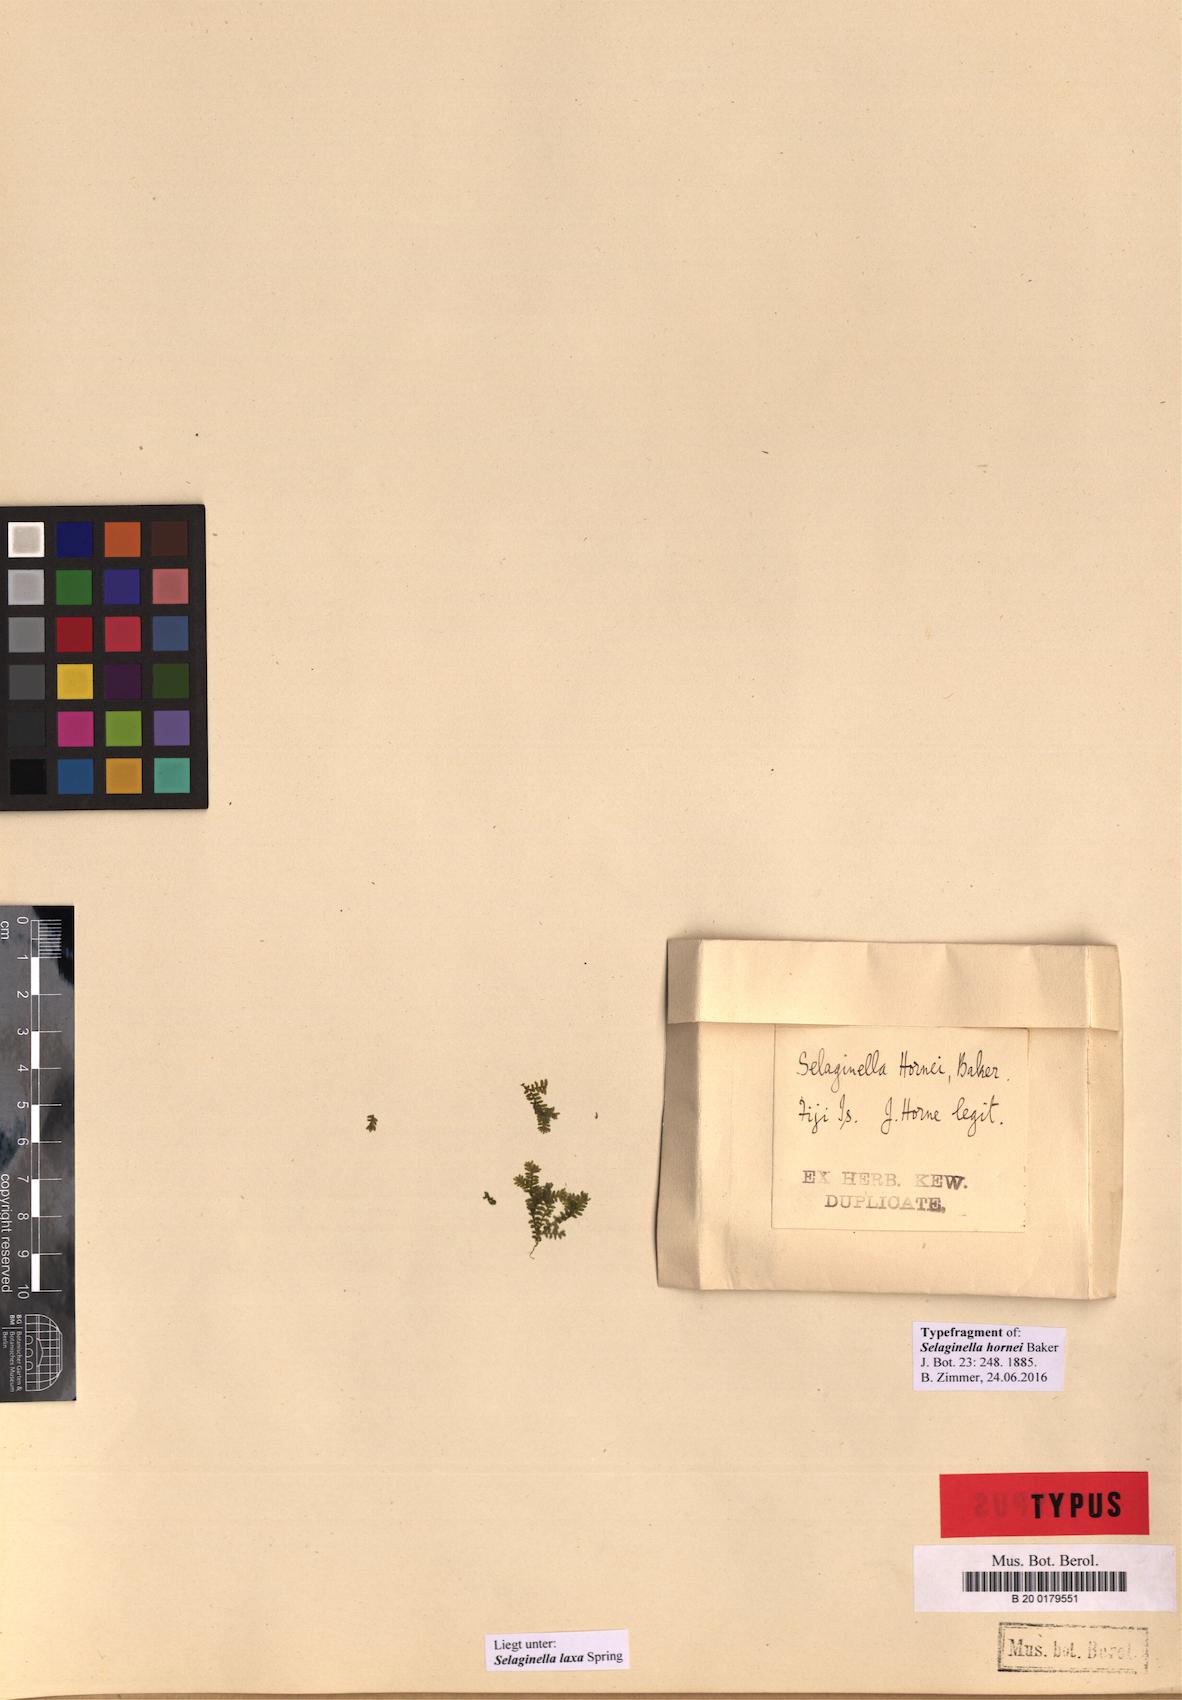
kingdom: Plantae
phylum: Tracheophyta
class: Lycopodiopsida
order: Selaginellales
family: Selaginellaceae
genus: Selaginella
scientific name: Selaginella laxa
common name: Lax spikemoss
